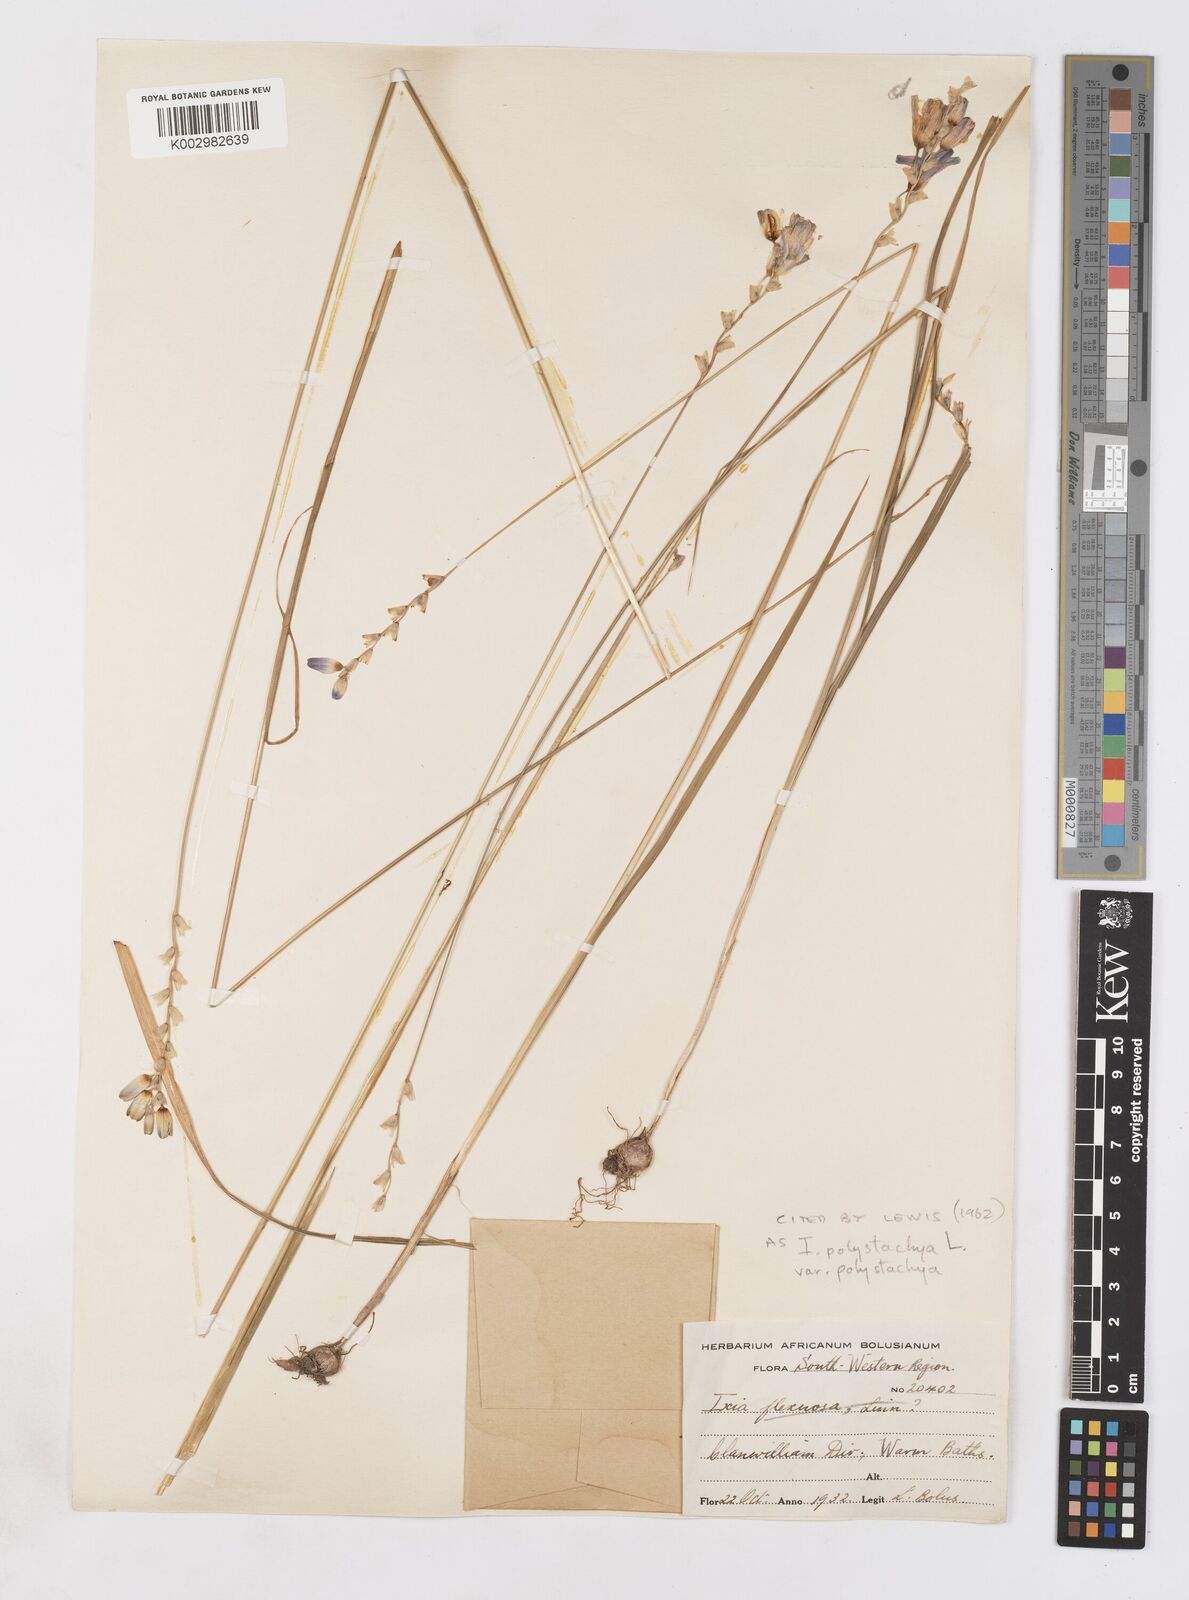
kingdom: Plantae
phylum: Tracheophyta
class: Liliopsida
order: Asparagales
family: Iridaceae
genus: Ixia
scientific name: Ixia polystachya
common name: White-and-yellow-flower cornlily
